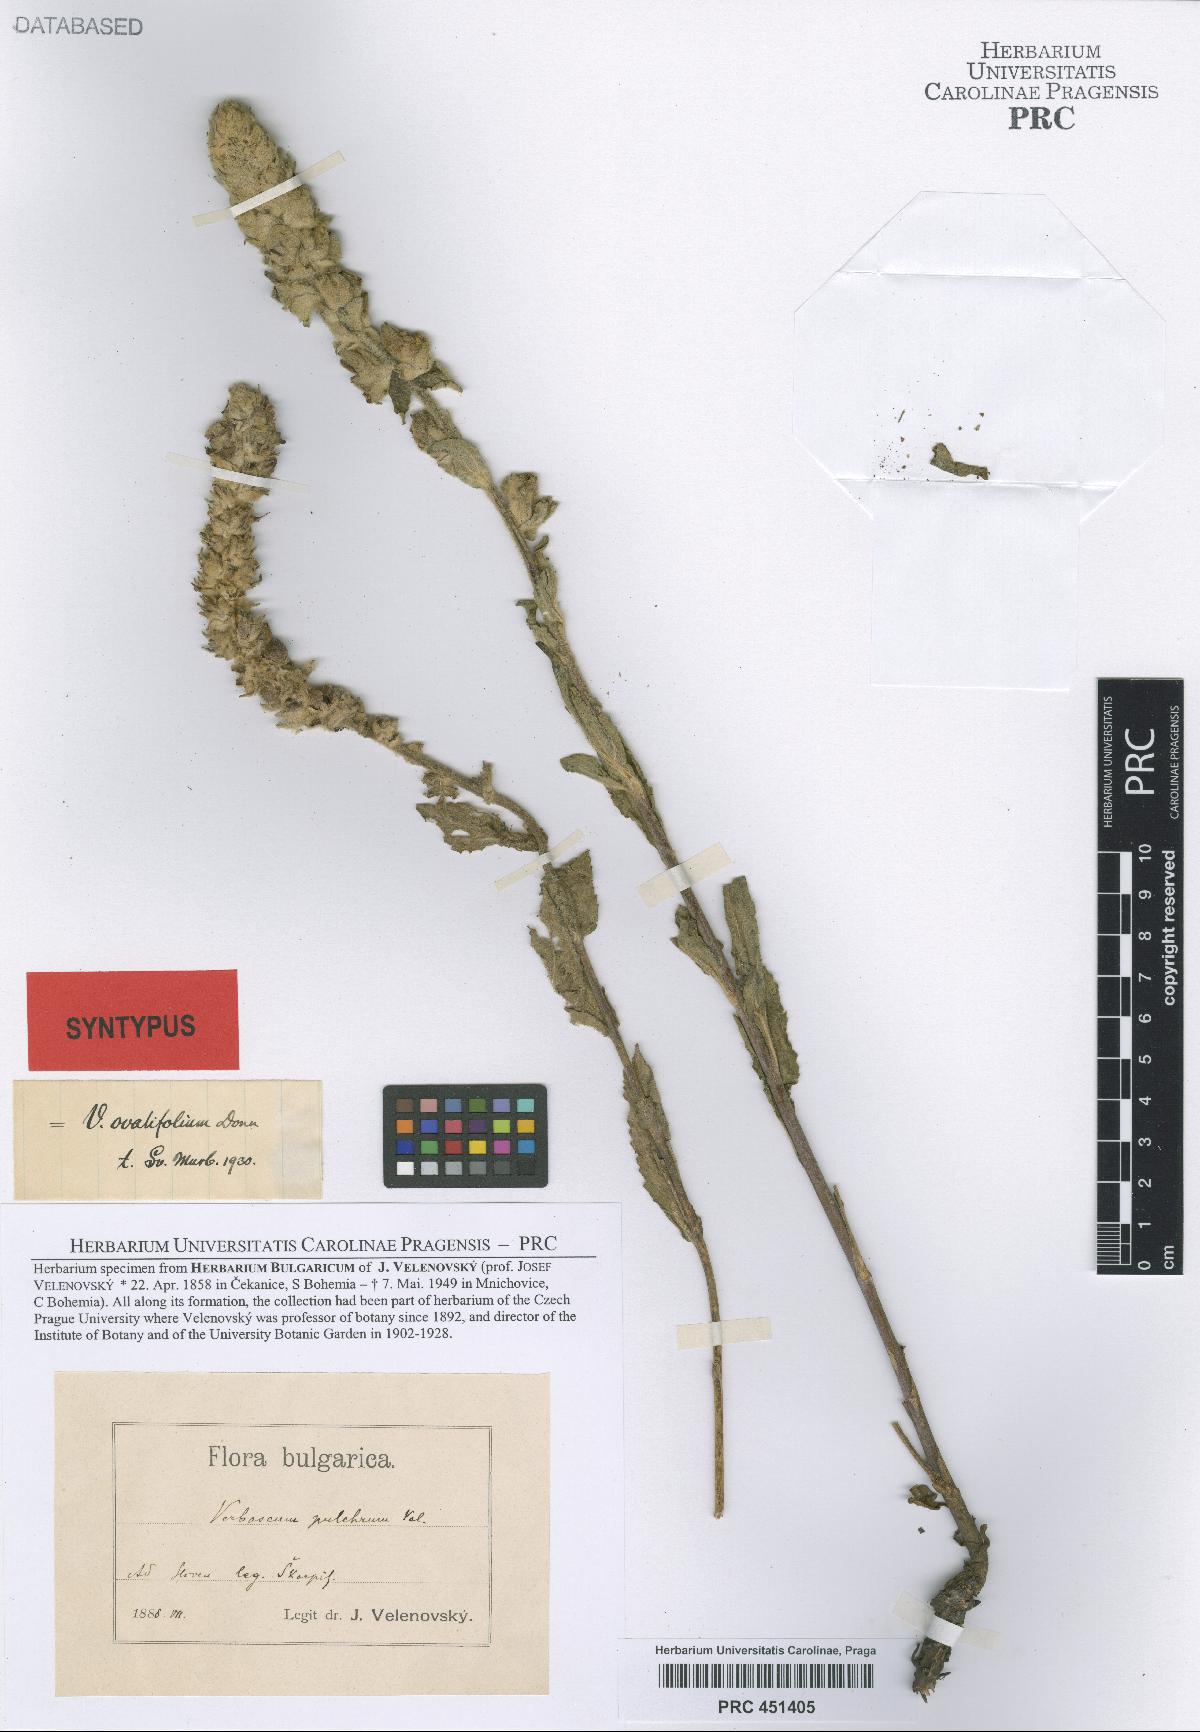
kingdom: Plantae
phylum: Tracheophyta
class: Magnoliopsida
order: Lamiales
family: Scrophulariaceae
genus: Verbascum
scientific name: Verbascum ovalifolium
